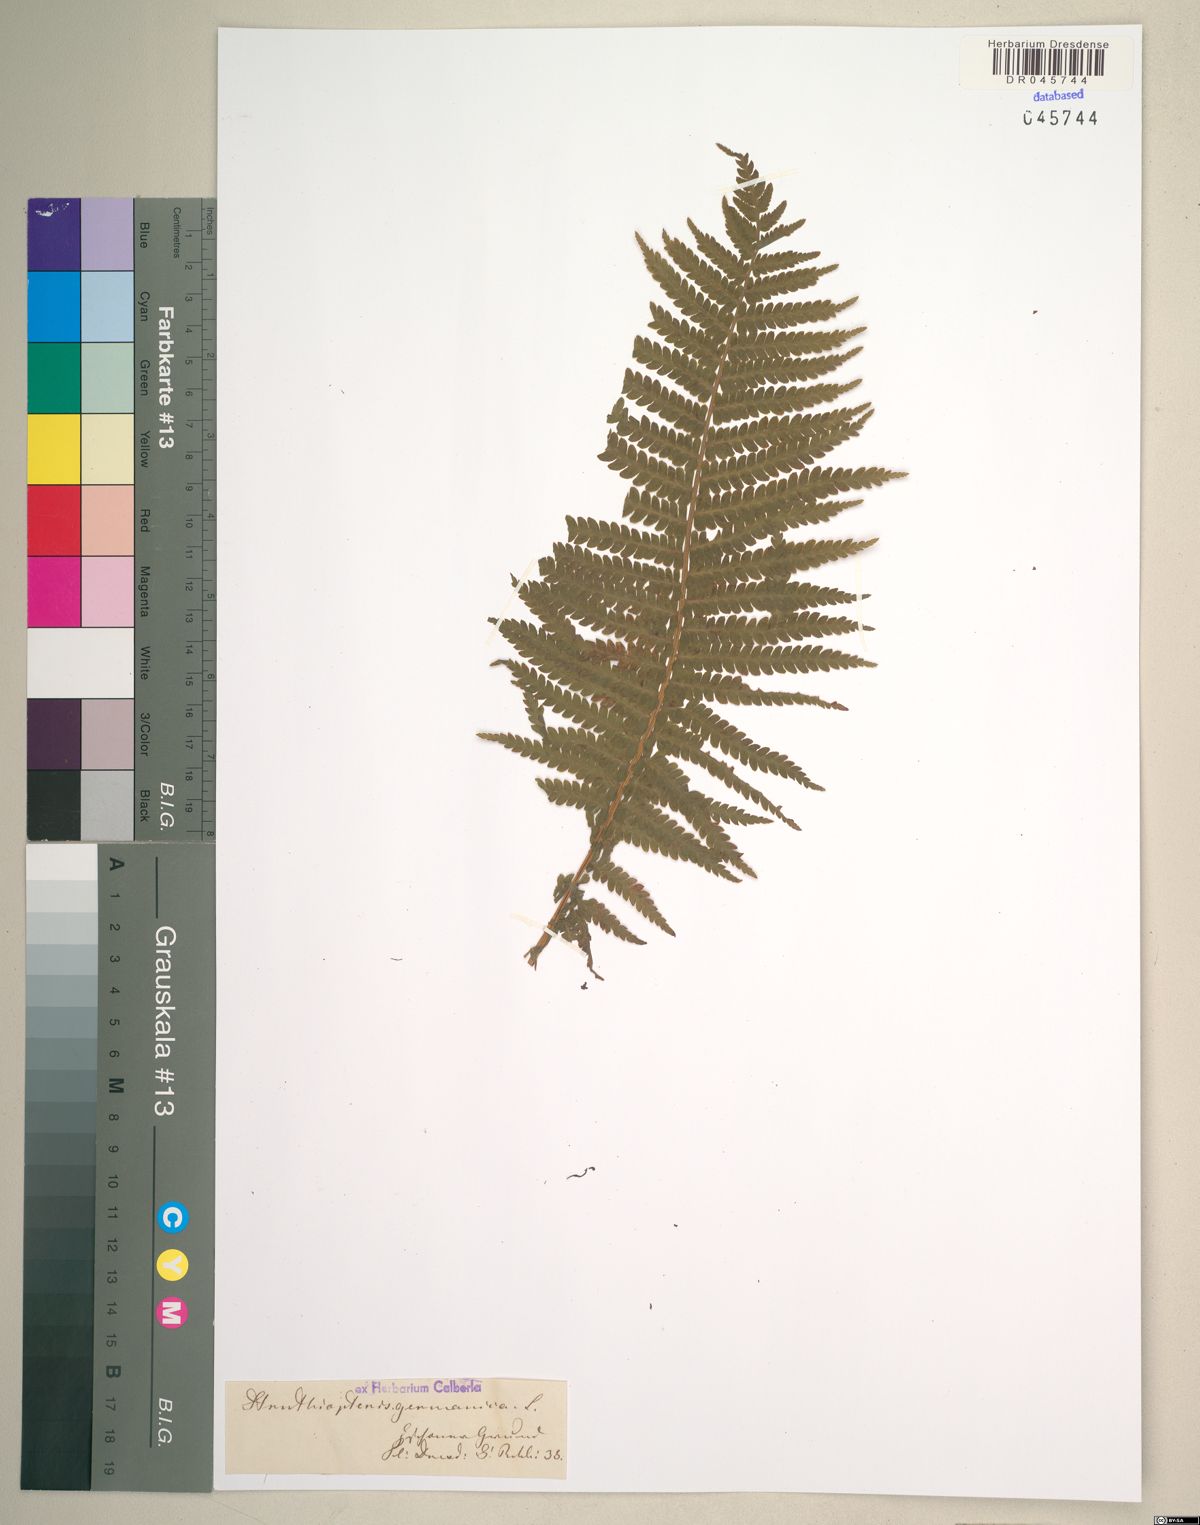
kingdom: Plantae
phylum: Tracheophyta
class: Polypodiopsida
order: Polypodiales
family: Onocleaceae
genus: Matteuccia
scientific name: Matteuccia struthiopteris
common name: Ostrich fern
